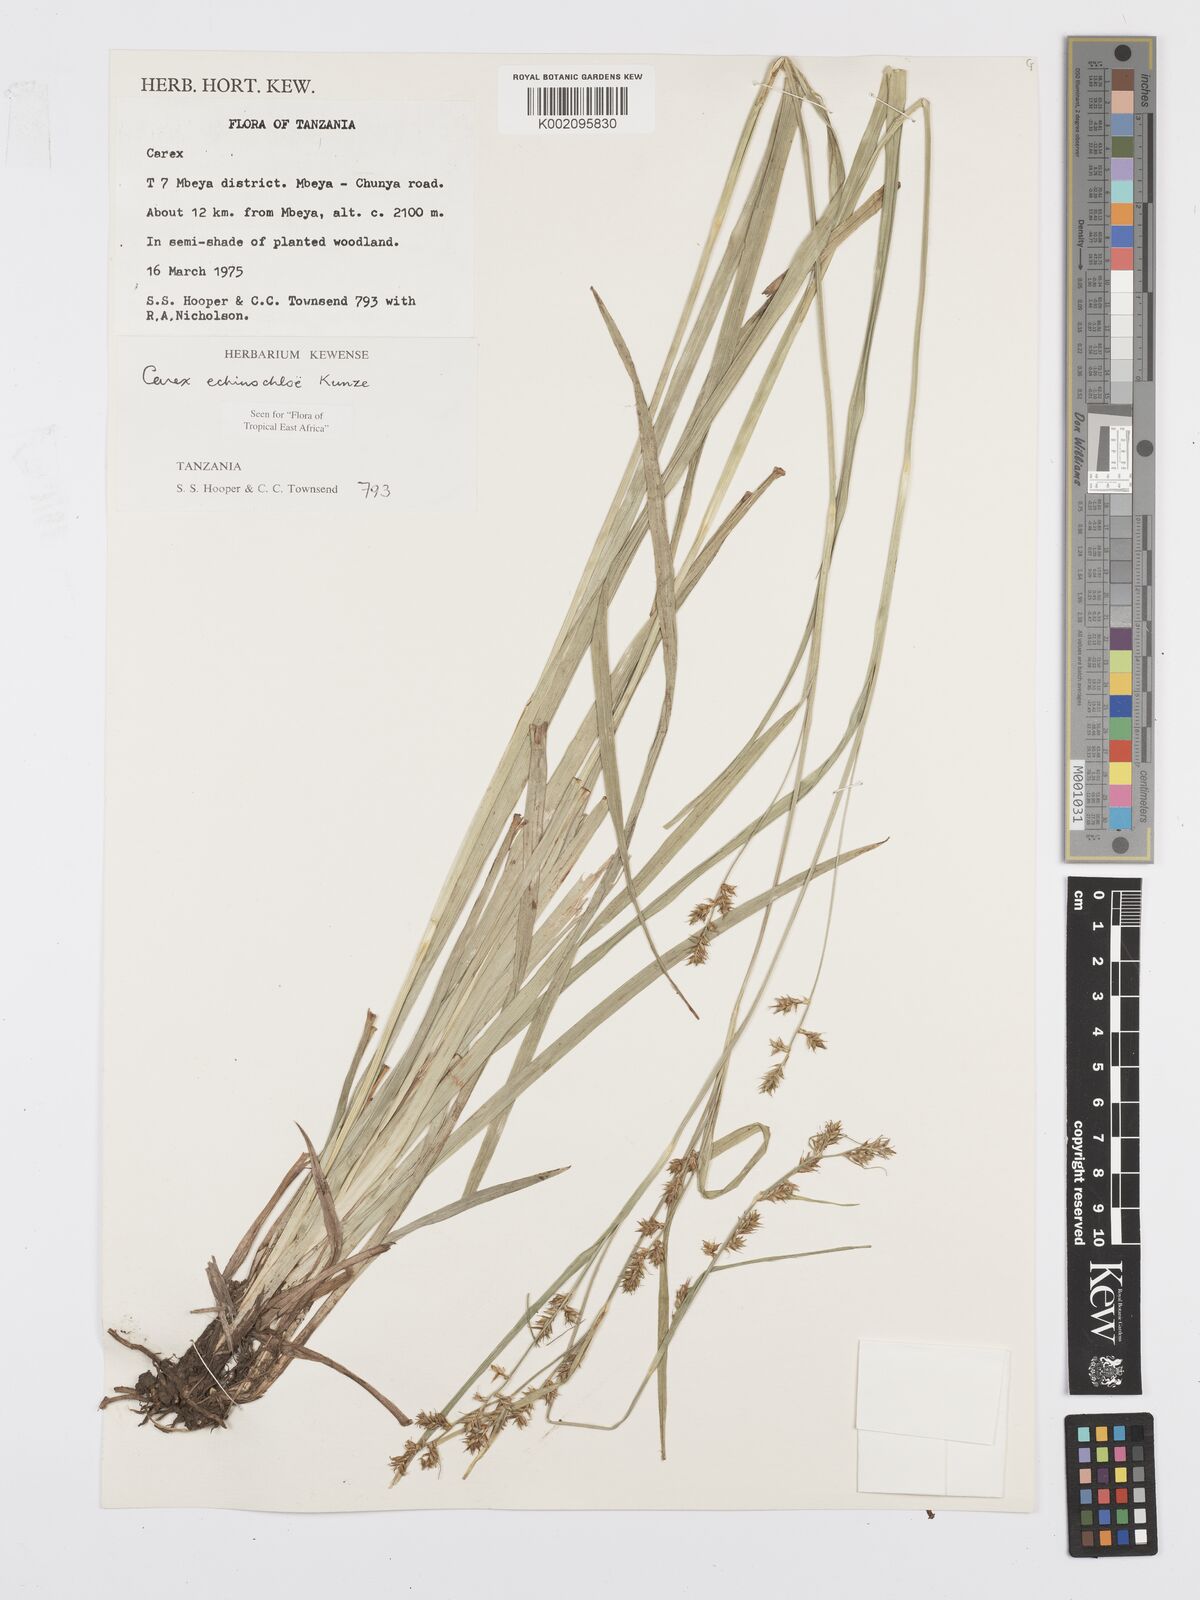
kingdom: Plantae
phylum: Tracheophyta
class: Liliopsida
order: Poales
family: Cyperaceae
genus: Carex
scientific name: Carex echinochloe
